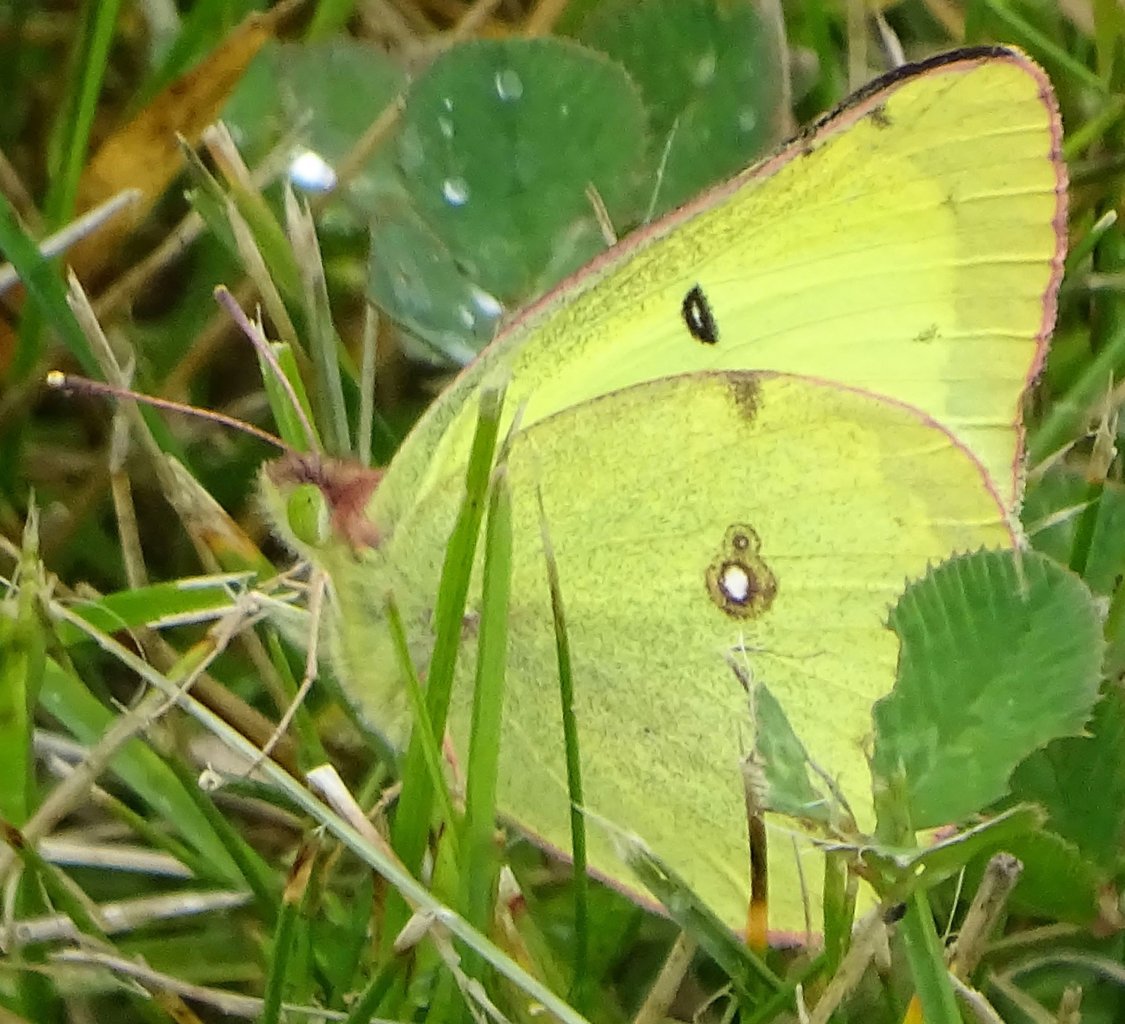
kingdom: Animalia
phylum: Arthropoda
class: Insecta
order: Lepidoptera
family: Pieridae
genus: Colias
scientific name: Colias philodice
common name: Clouded Sulphur
